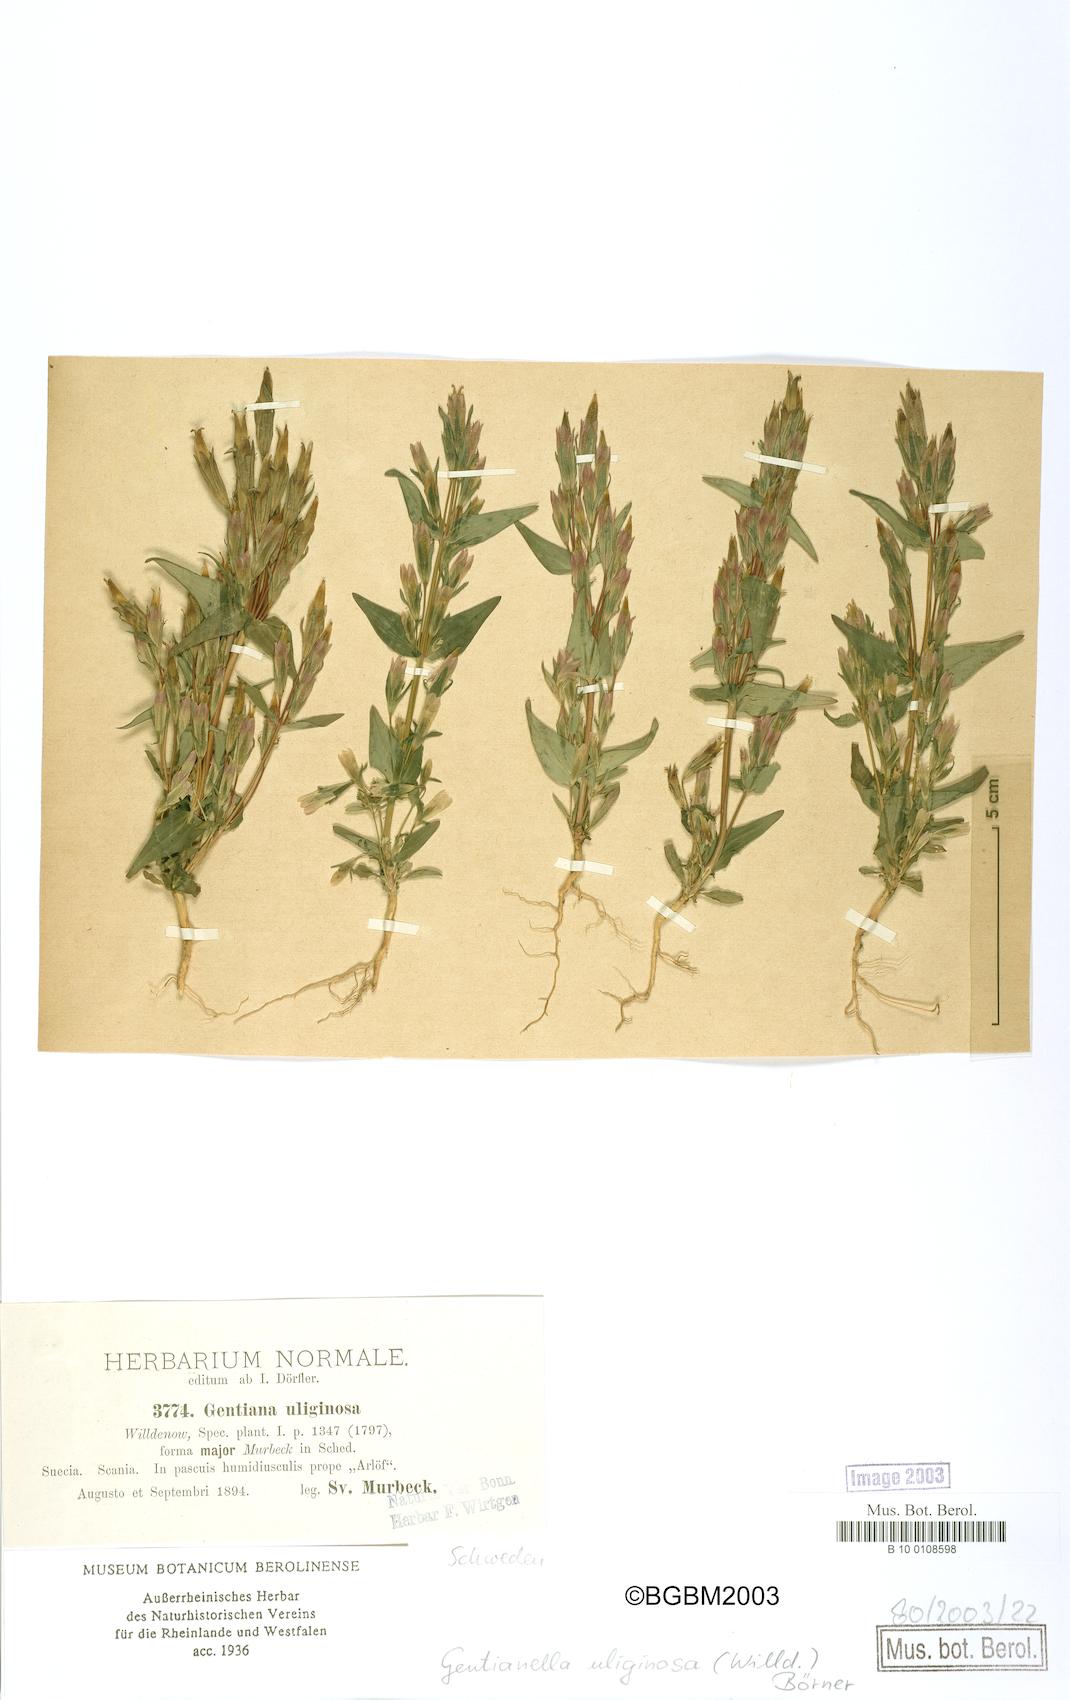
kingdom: Plantae
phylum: Tracheophyta
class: Magnoliopsida
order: Gentianales
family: Gentianaceae
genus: Gentianella
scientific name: Gentianella uliginosa
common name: Dune gentian
